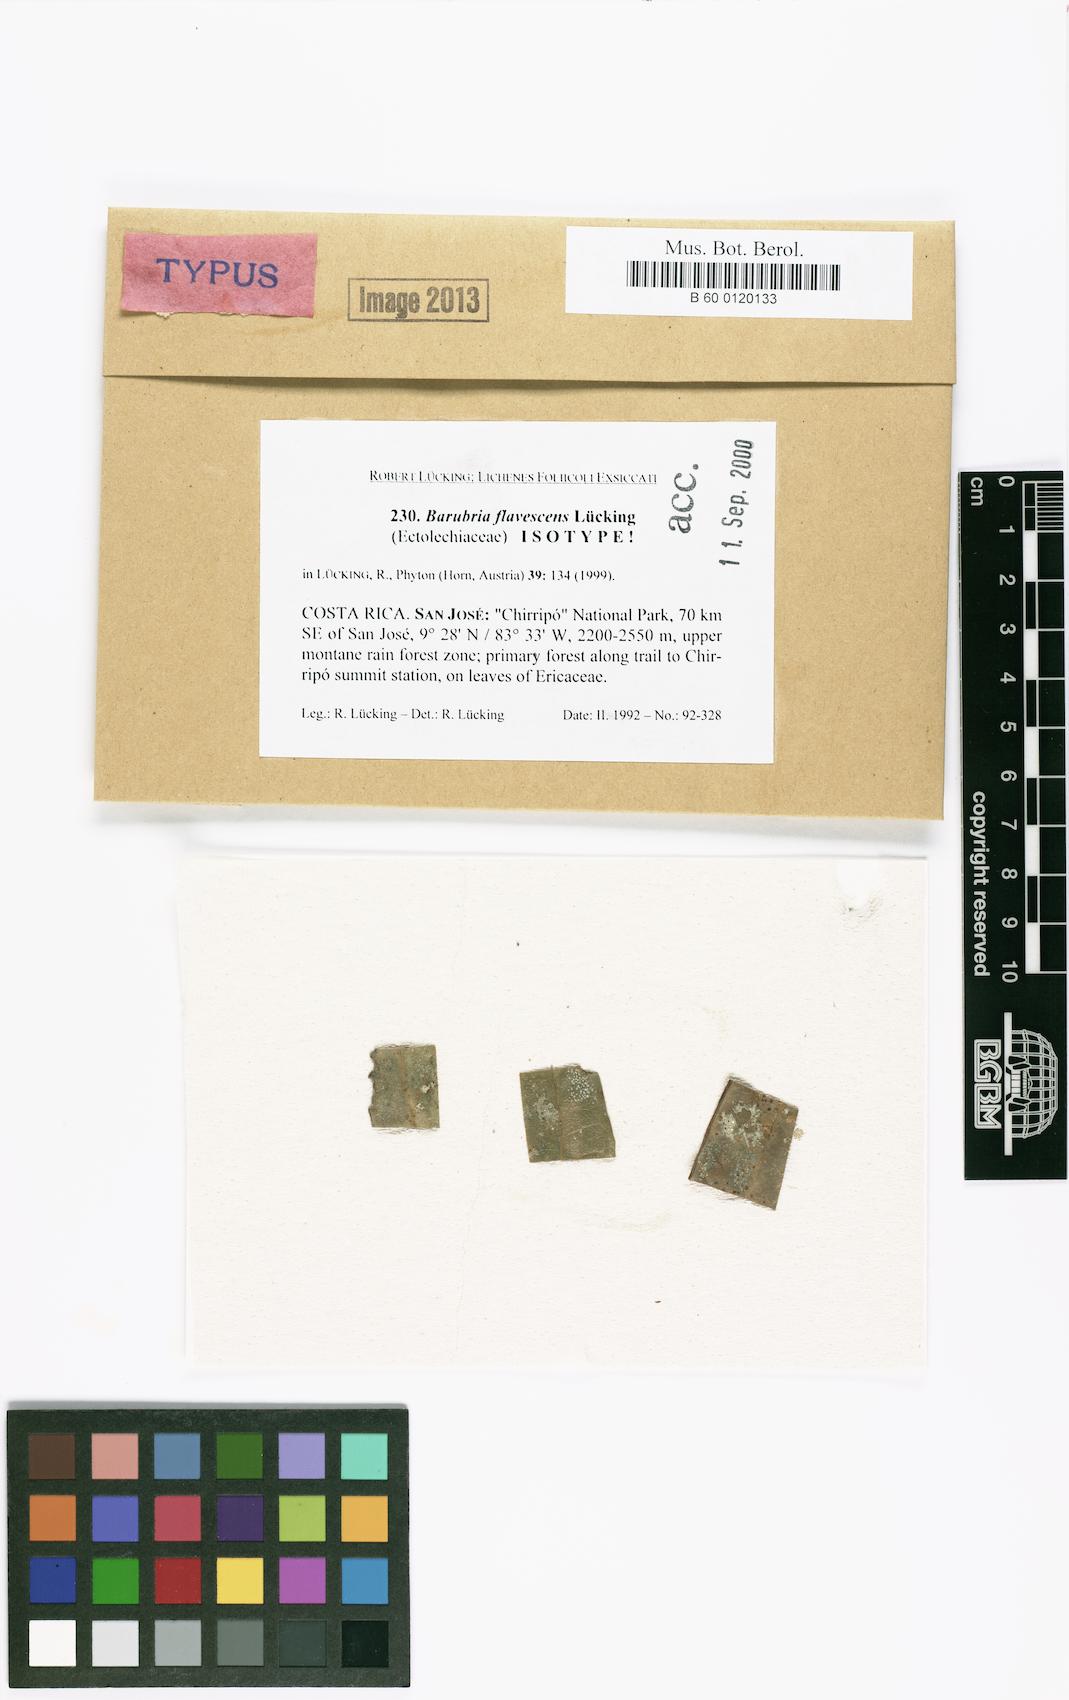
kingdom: Fungi
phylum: Ascomycota
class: Lecanoromycetes
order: Lecanorales
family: Byssolomataceae
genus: Baflavia
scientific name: Baflavia flavescens
